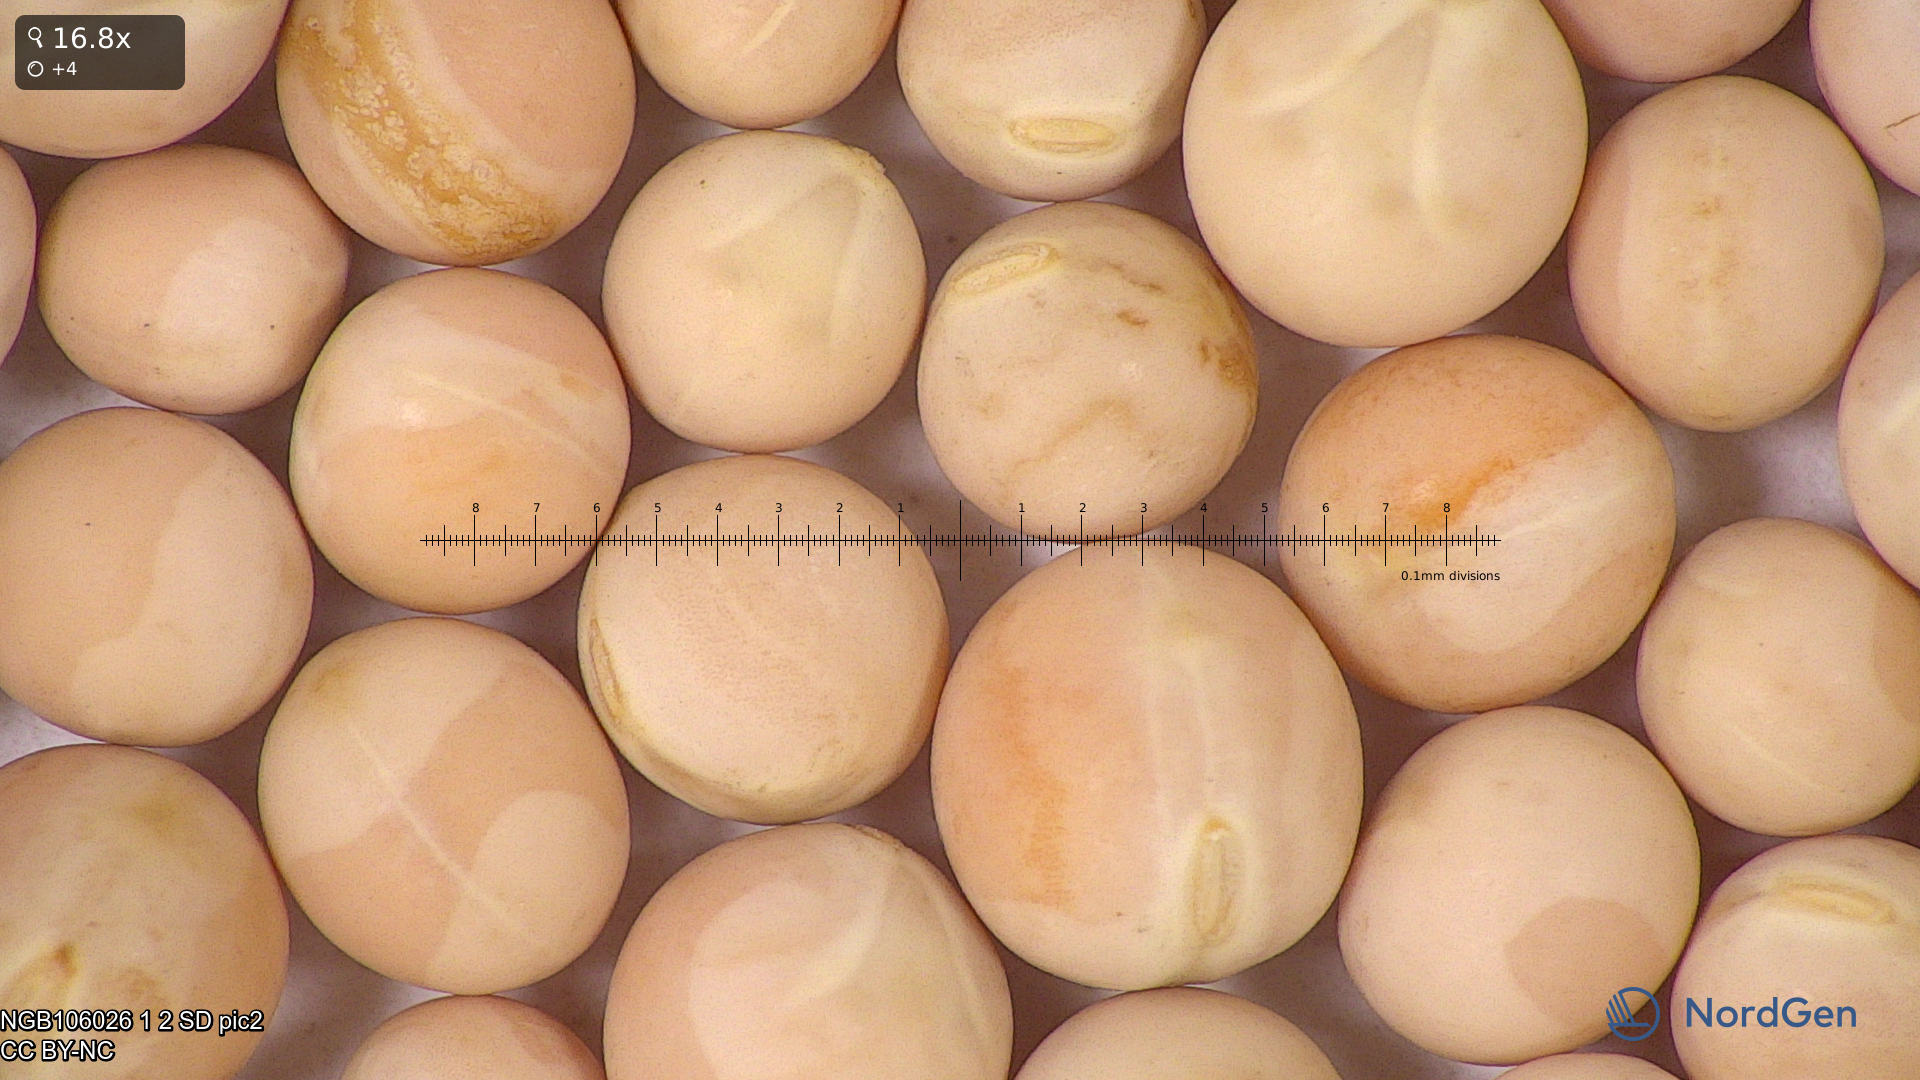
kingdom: Plantae
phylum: Tracheophyta
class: Magnoliopsida
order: Fabales
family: Fabaceae
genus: Lathyrus
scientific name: Lathyrus oleraceus
